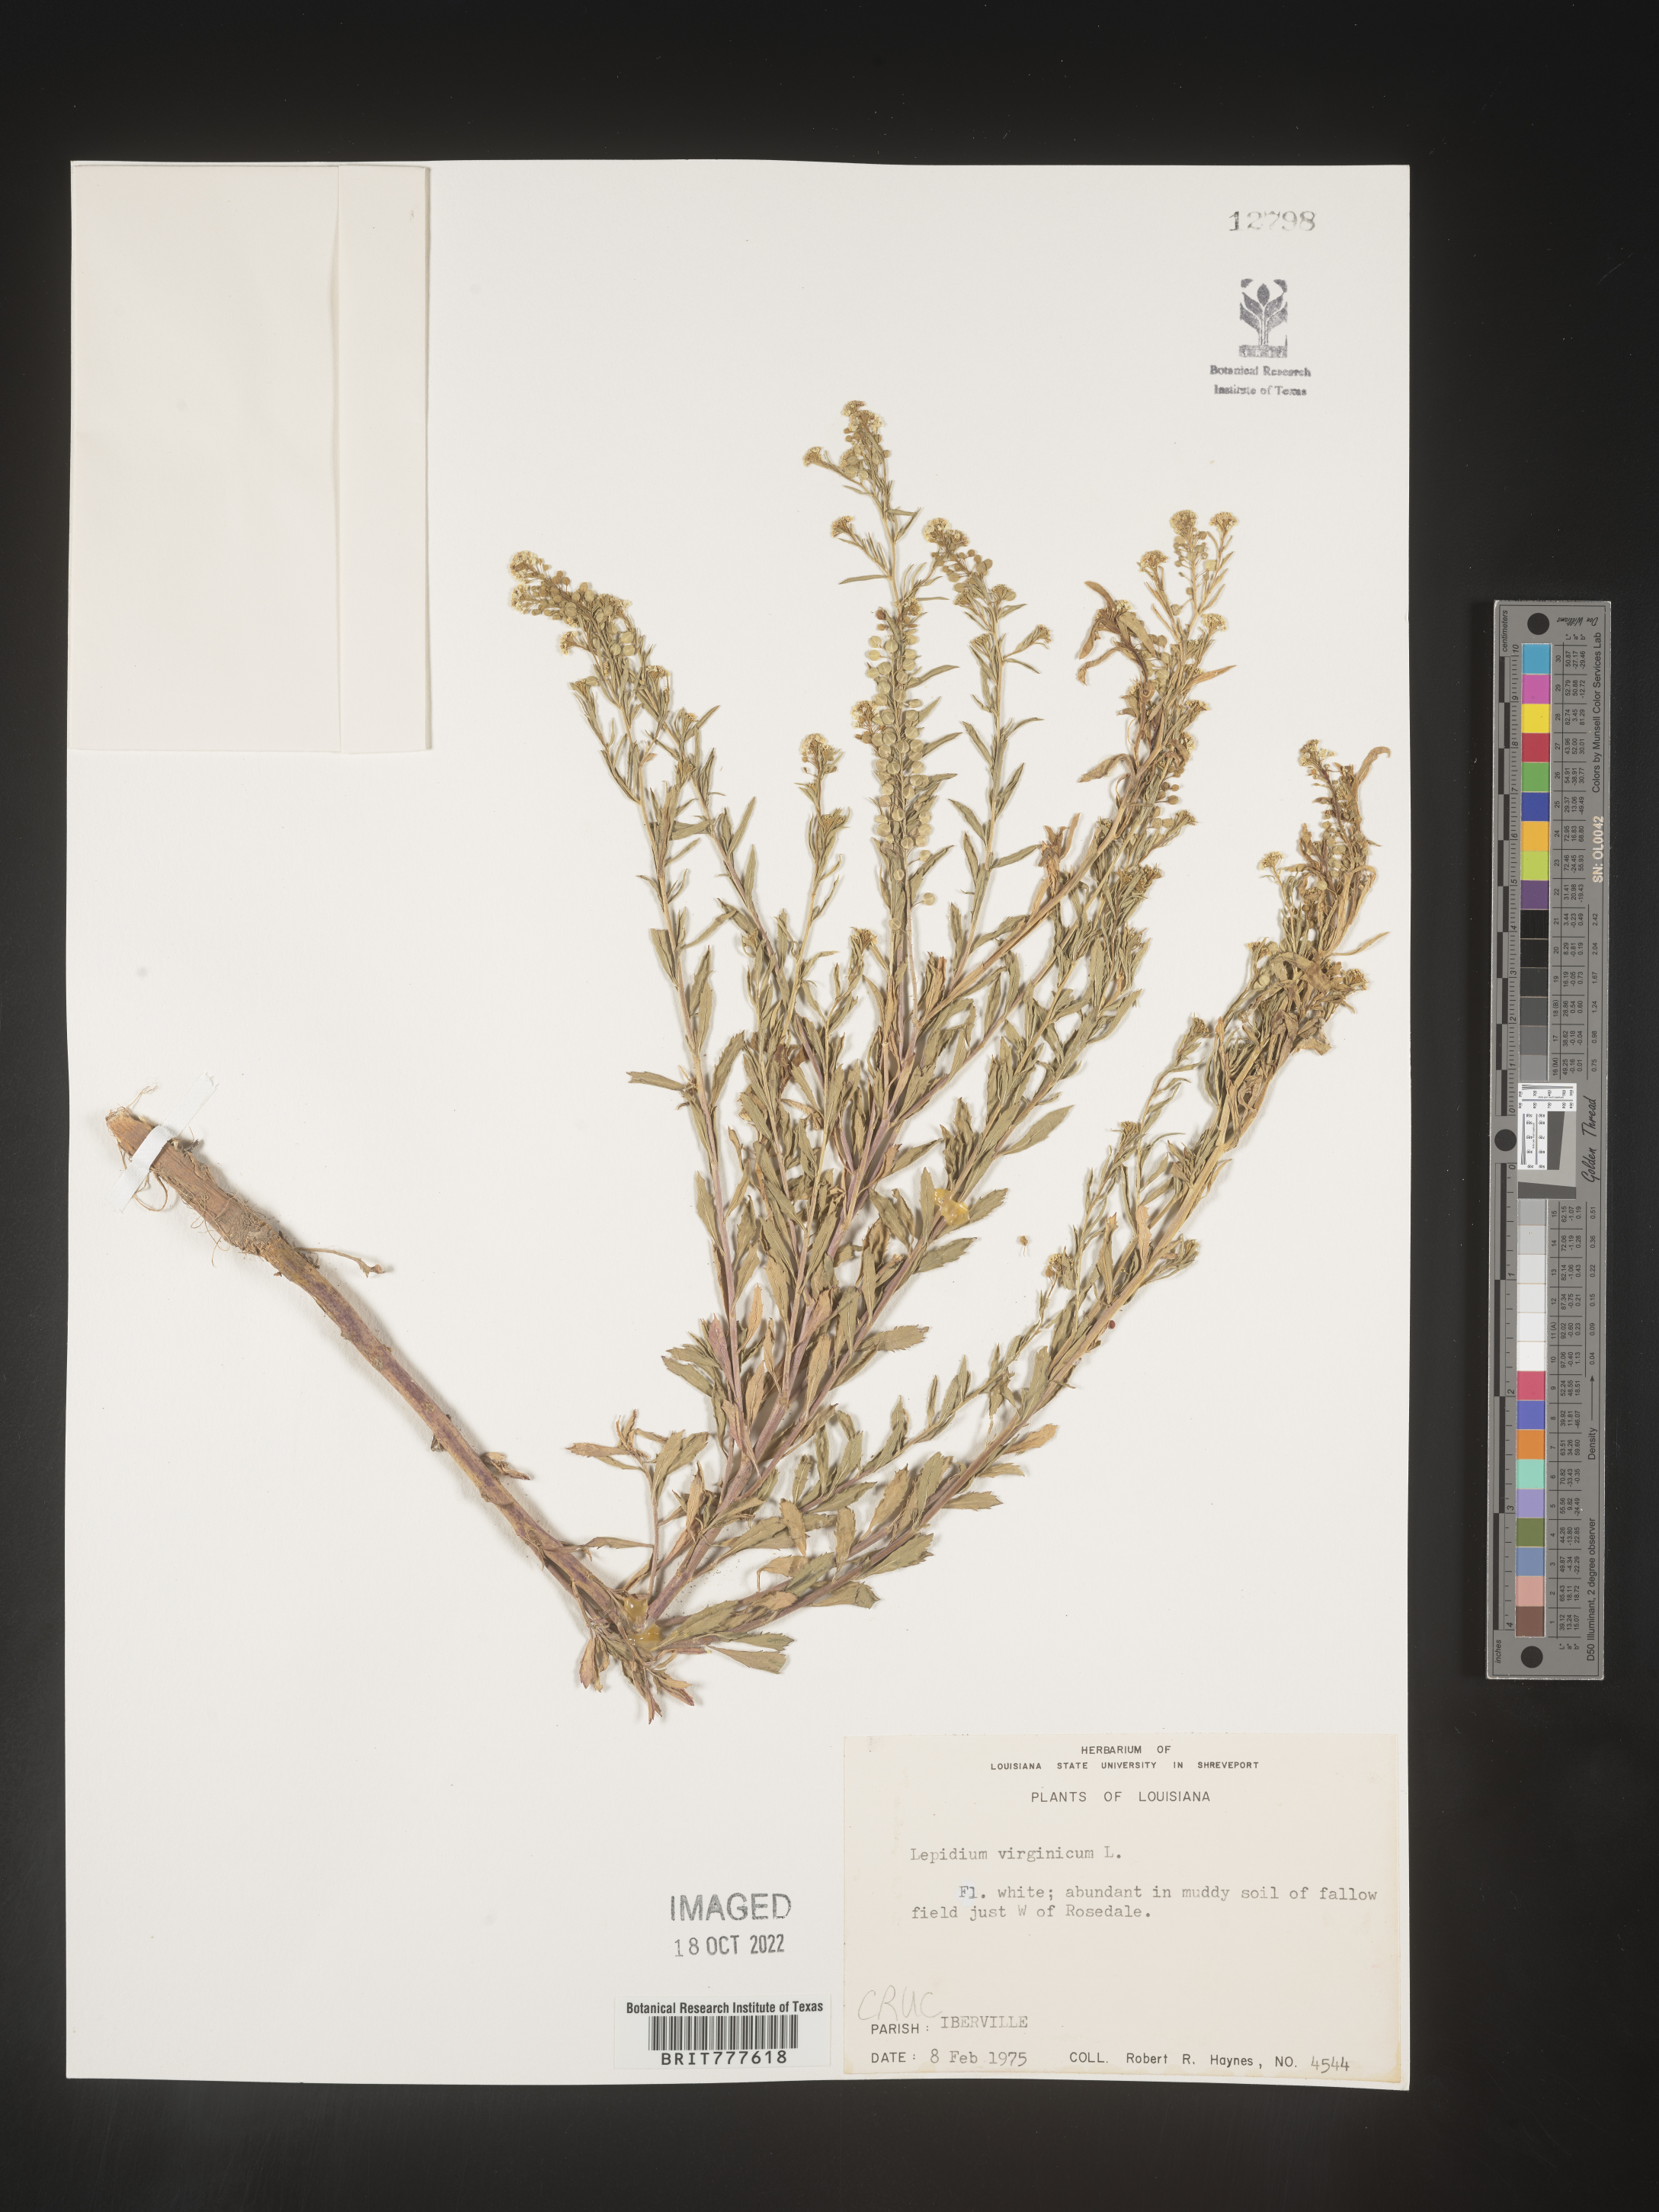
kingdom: Plantae
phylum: Tracheophyta
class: Magnoliopsida
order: Brassicales
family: Brassicaceae
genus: Lepidium
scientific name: Lepidium virginicum
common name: Least pepperwort
